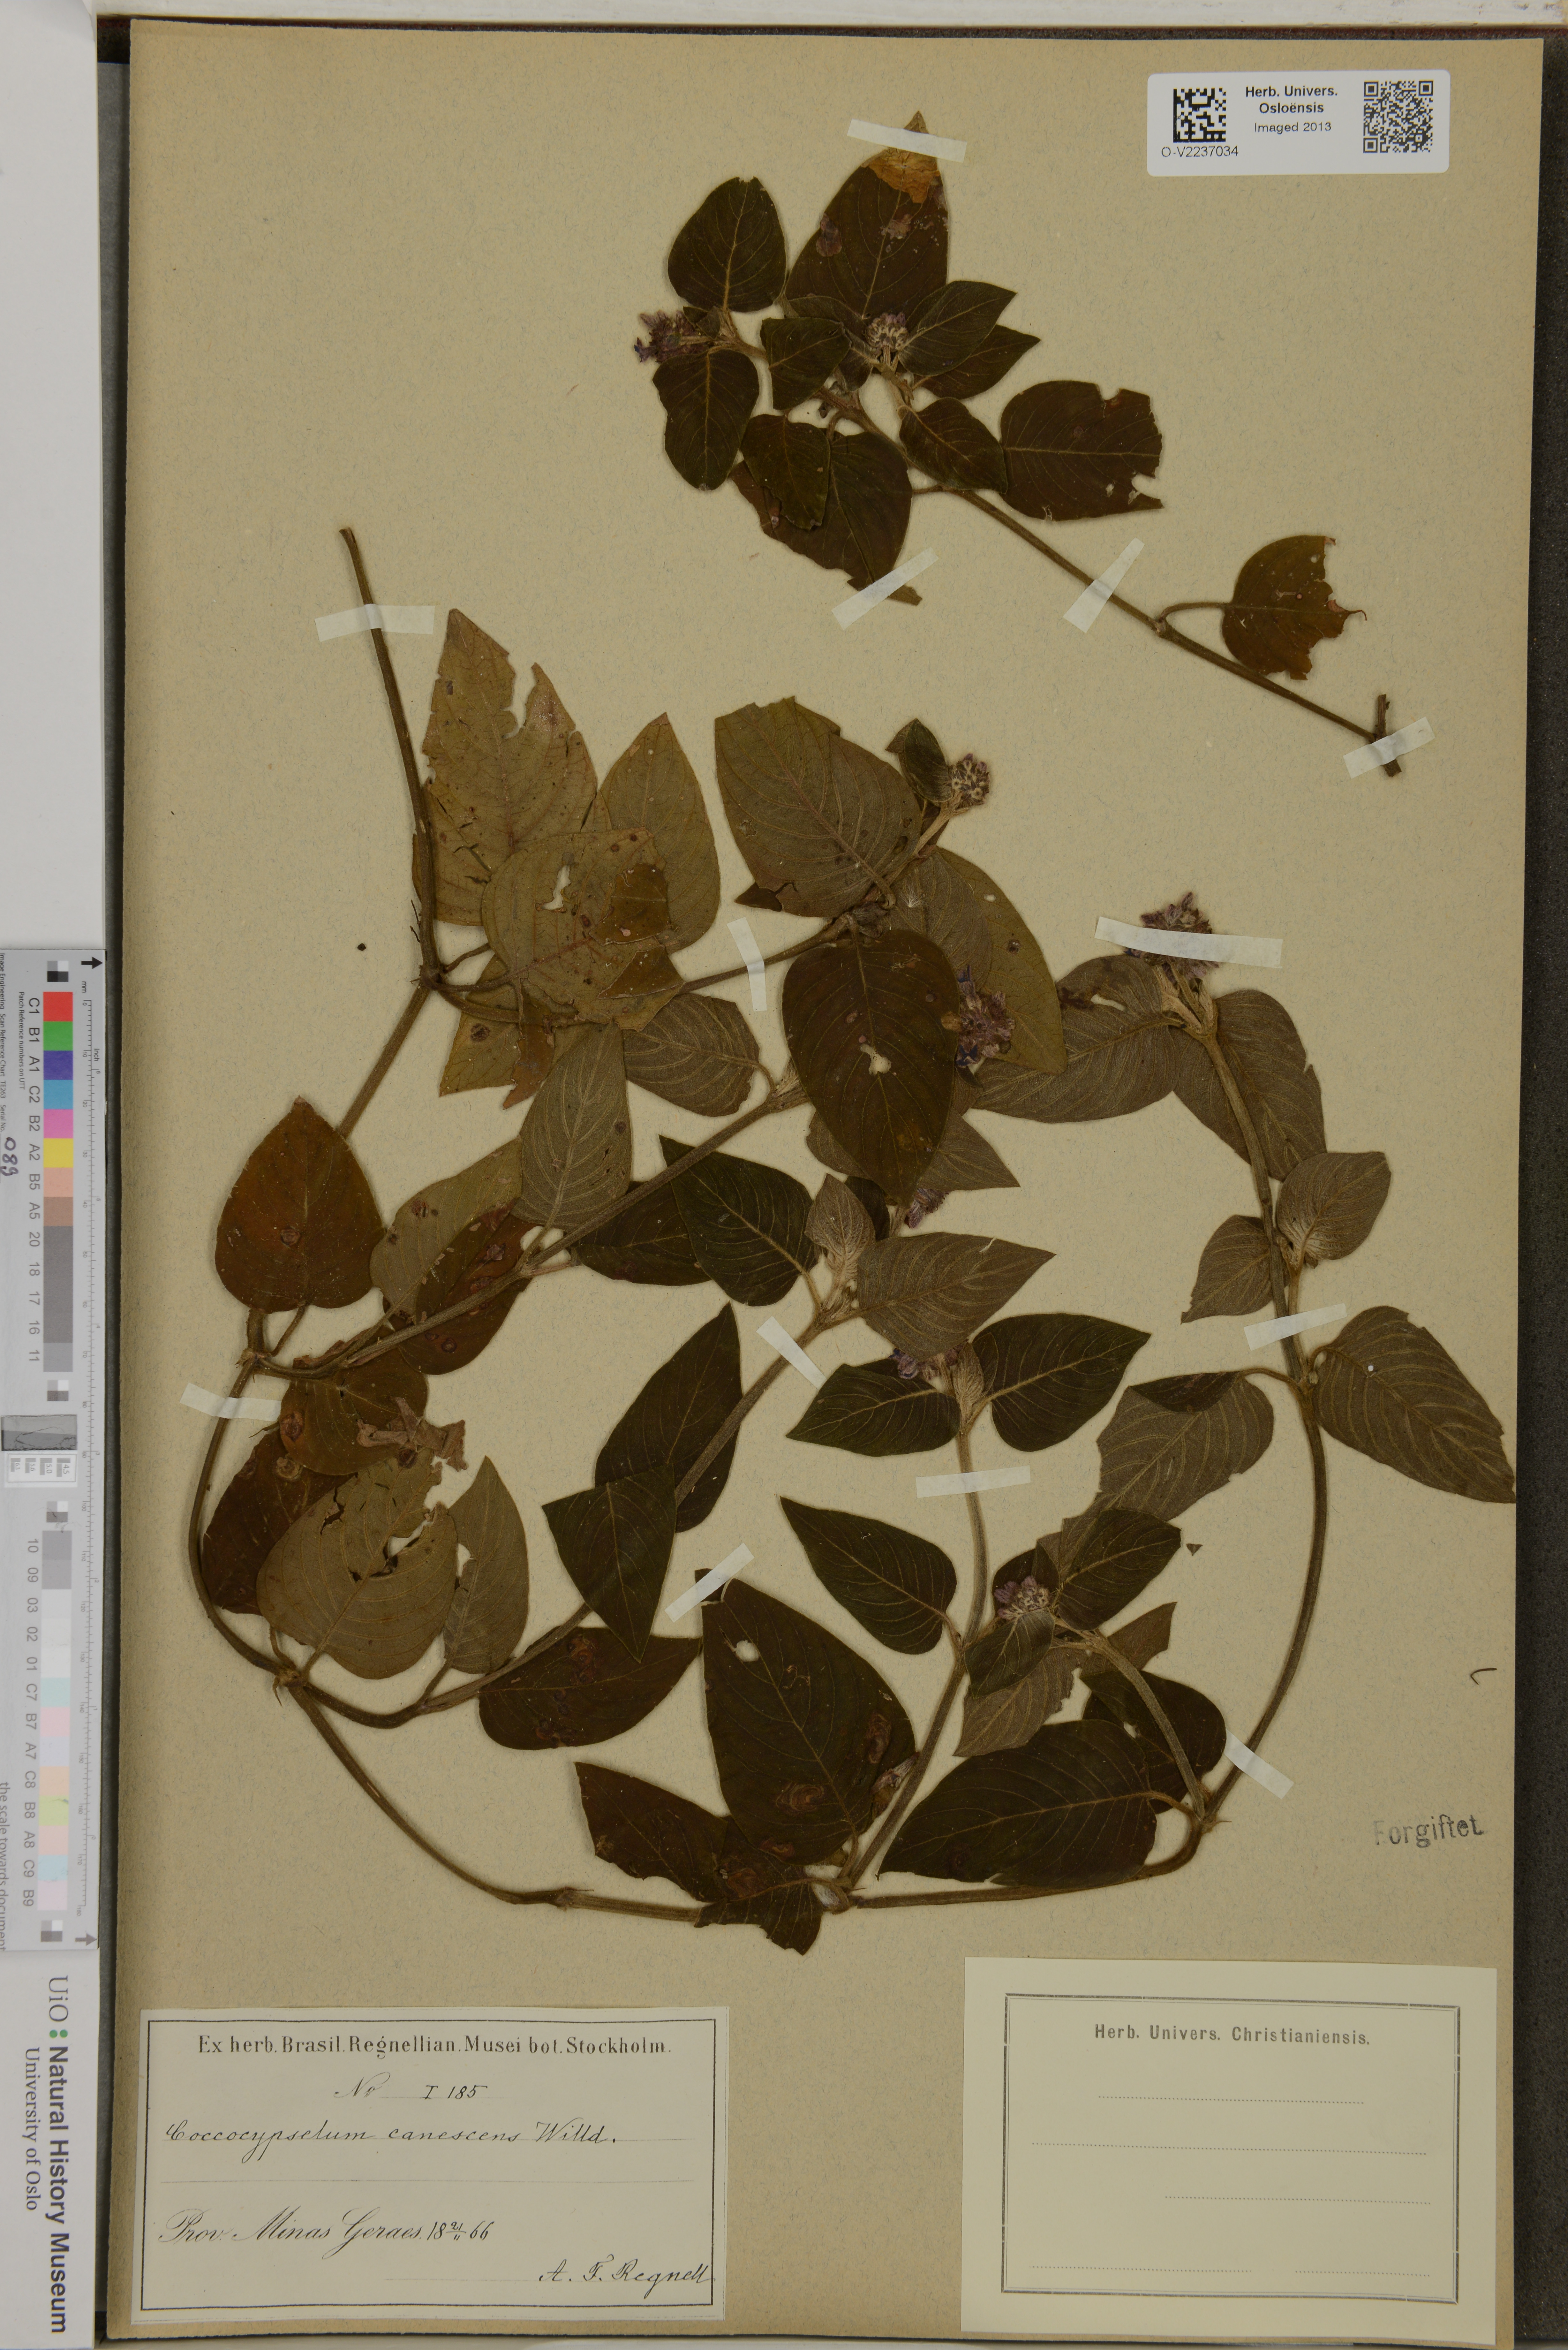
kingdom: Plantae
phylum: Tracheophyta
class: Magnoliopsida
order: Gentianales
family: Rubiaceae
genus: Coccocypselum
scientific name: Coccocypselum lanceolatum
